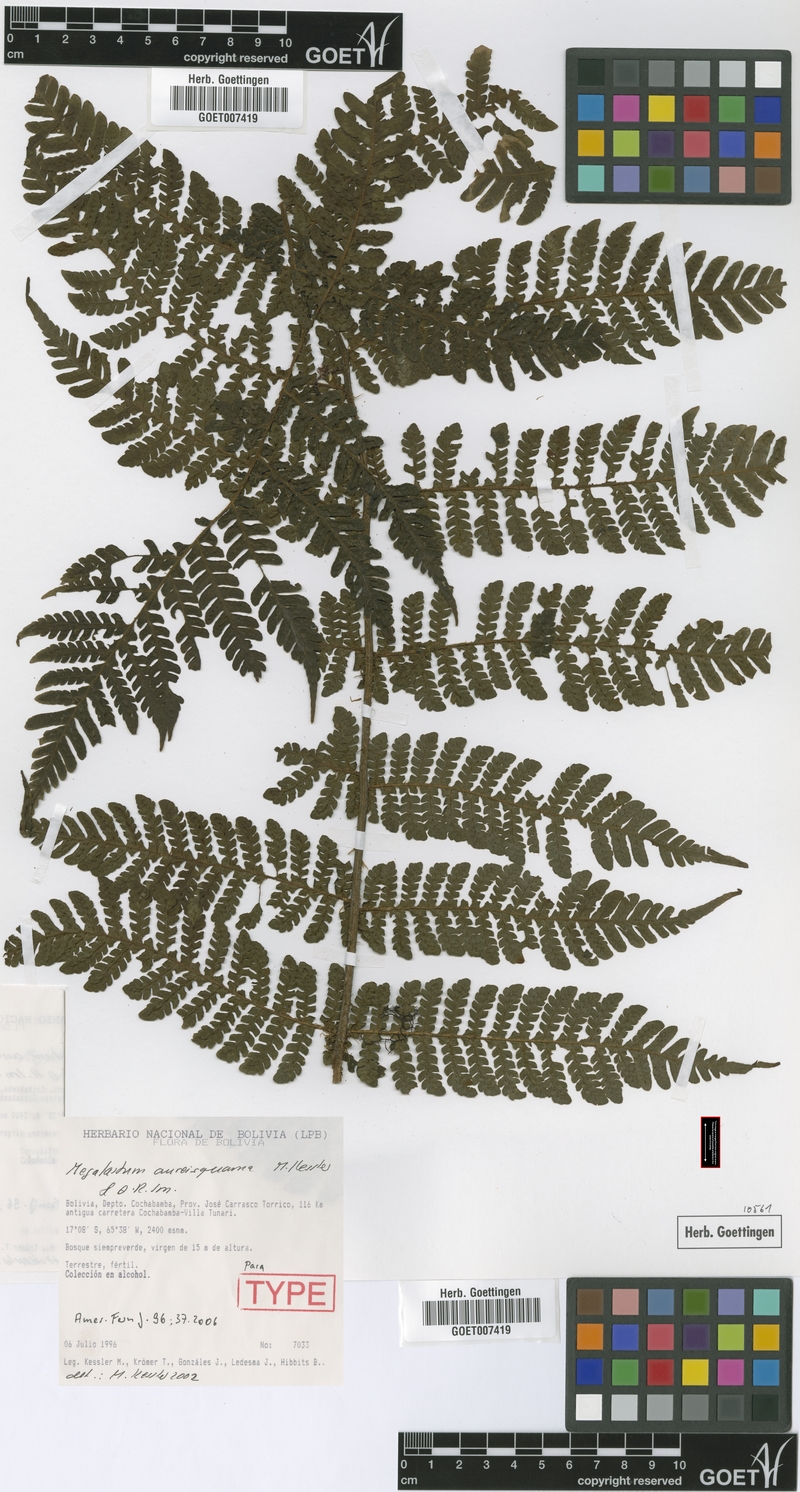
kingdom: Plantae
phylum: Tracheophyta
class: Polypodiopsida
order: Polypodiales
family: Dryopteridaceae
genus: Megalastrum
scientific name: Megalastrum aureisquama
